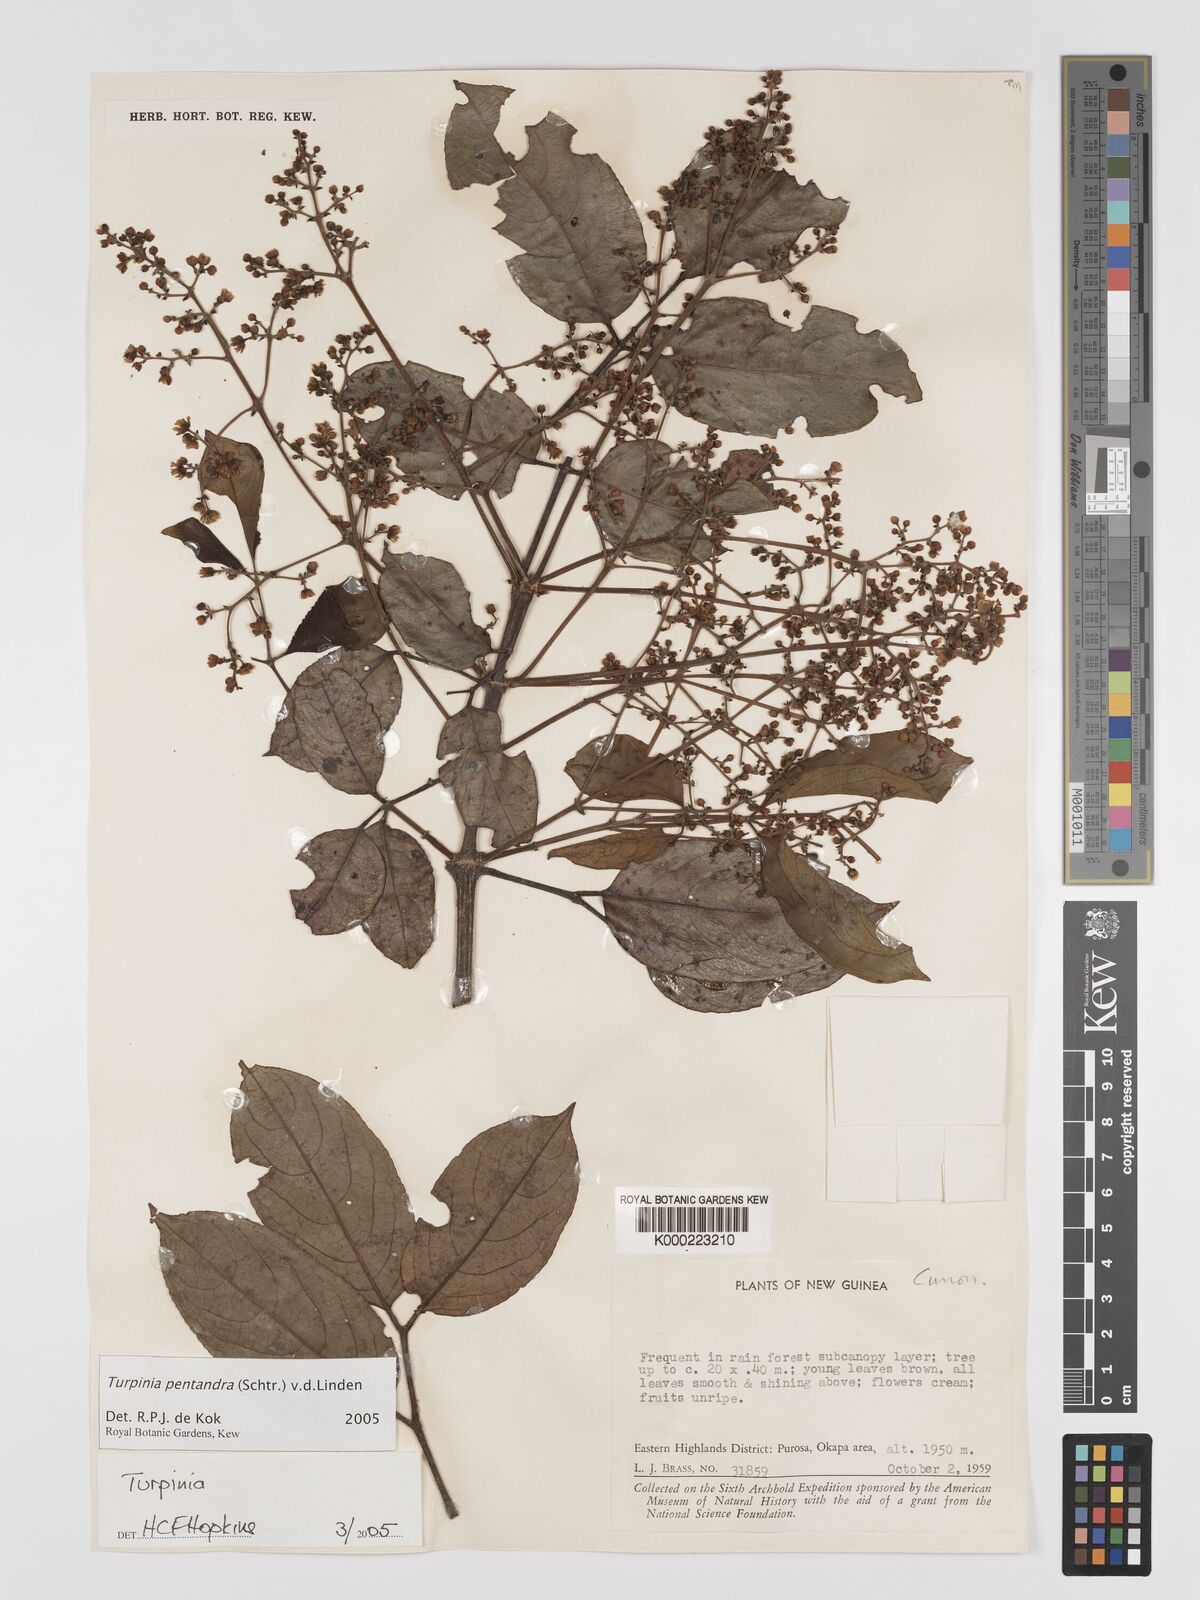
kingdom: Plantae
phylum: Tracheophyta
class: Magnoliopsida
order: Crossosomatales
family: Staphyleaceae
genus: Turpinia
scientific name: Turpinia pentandra
